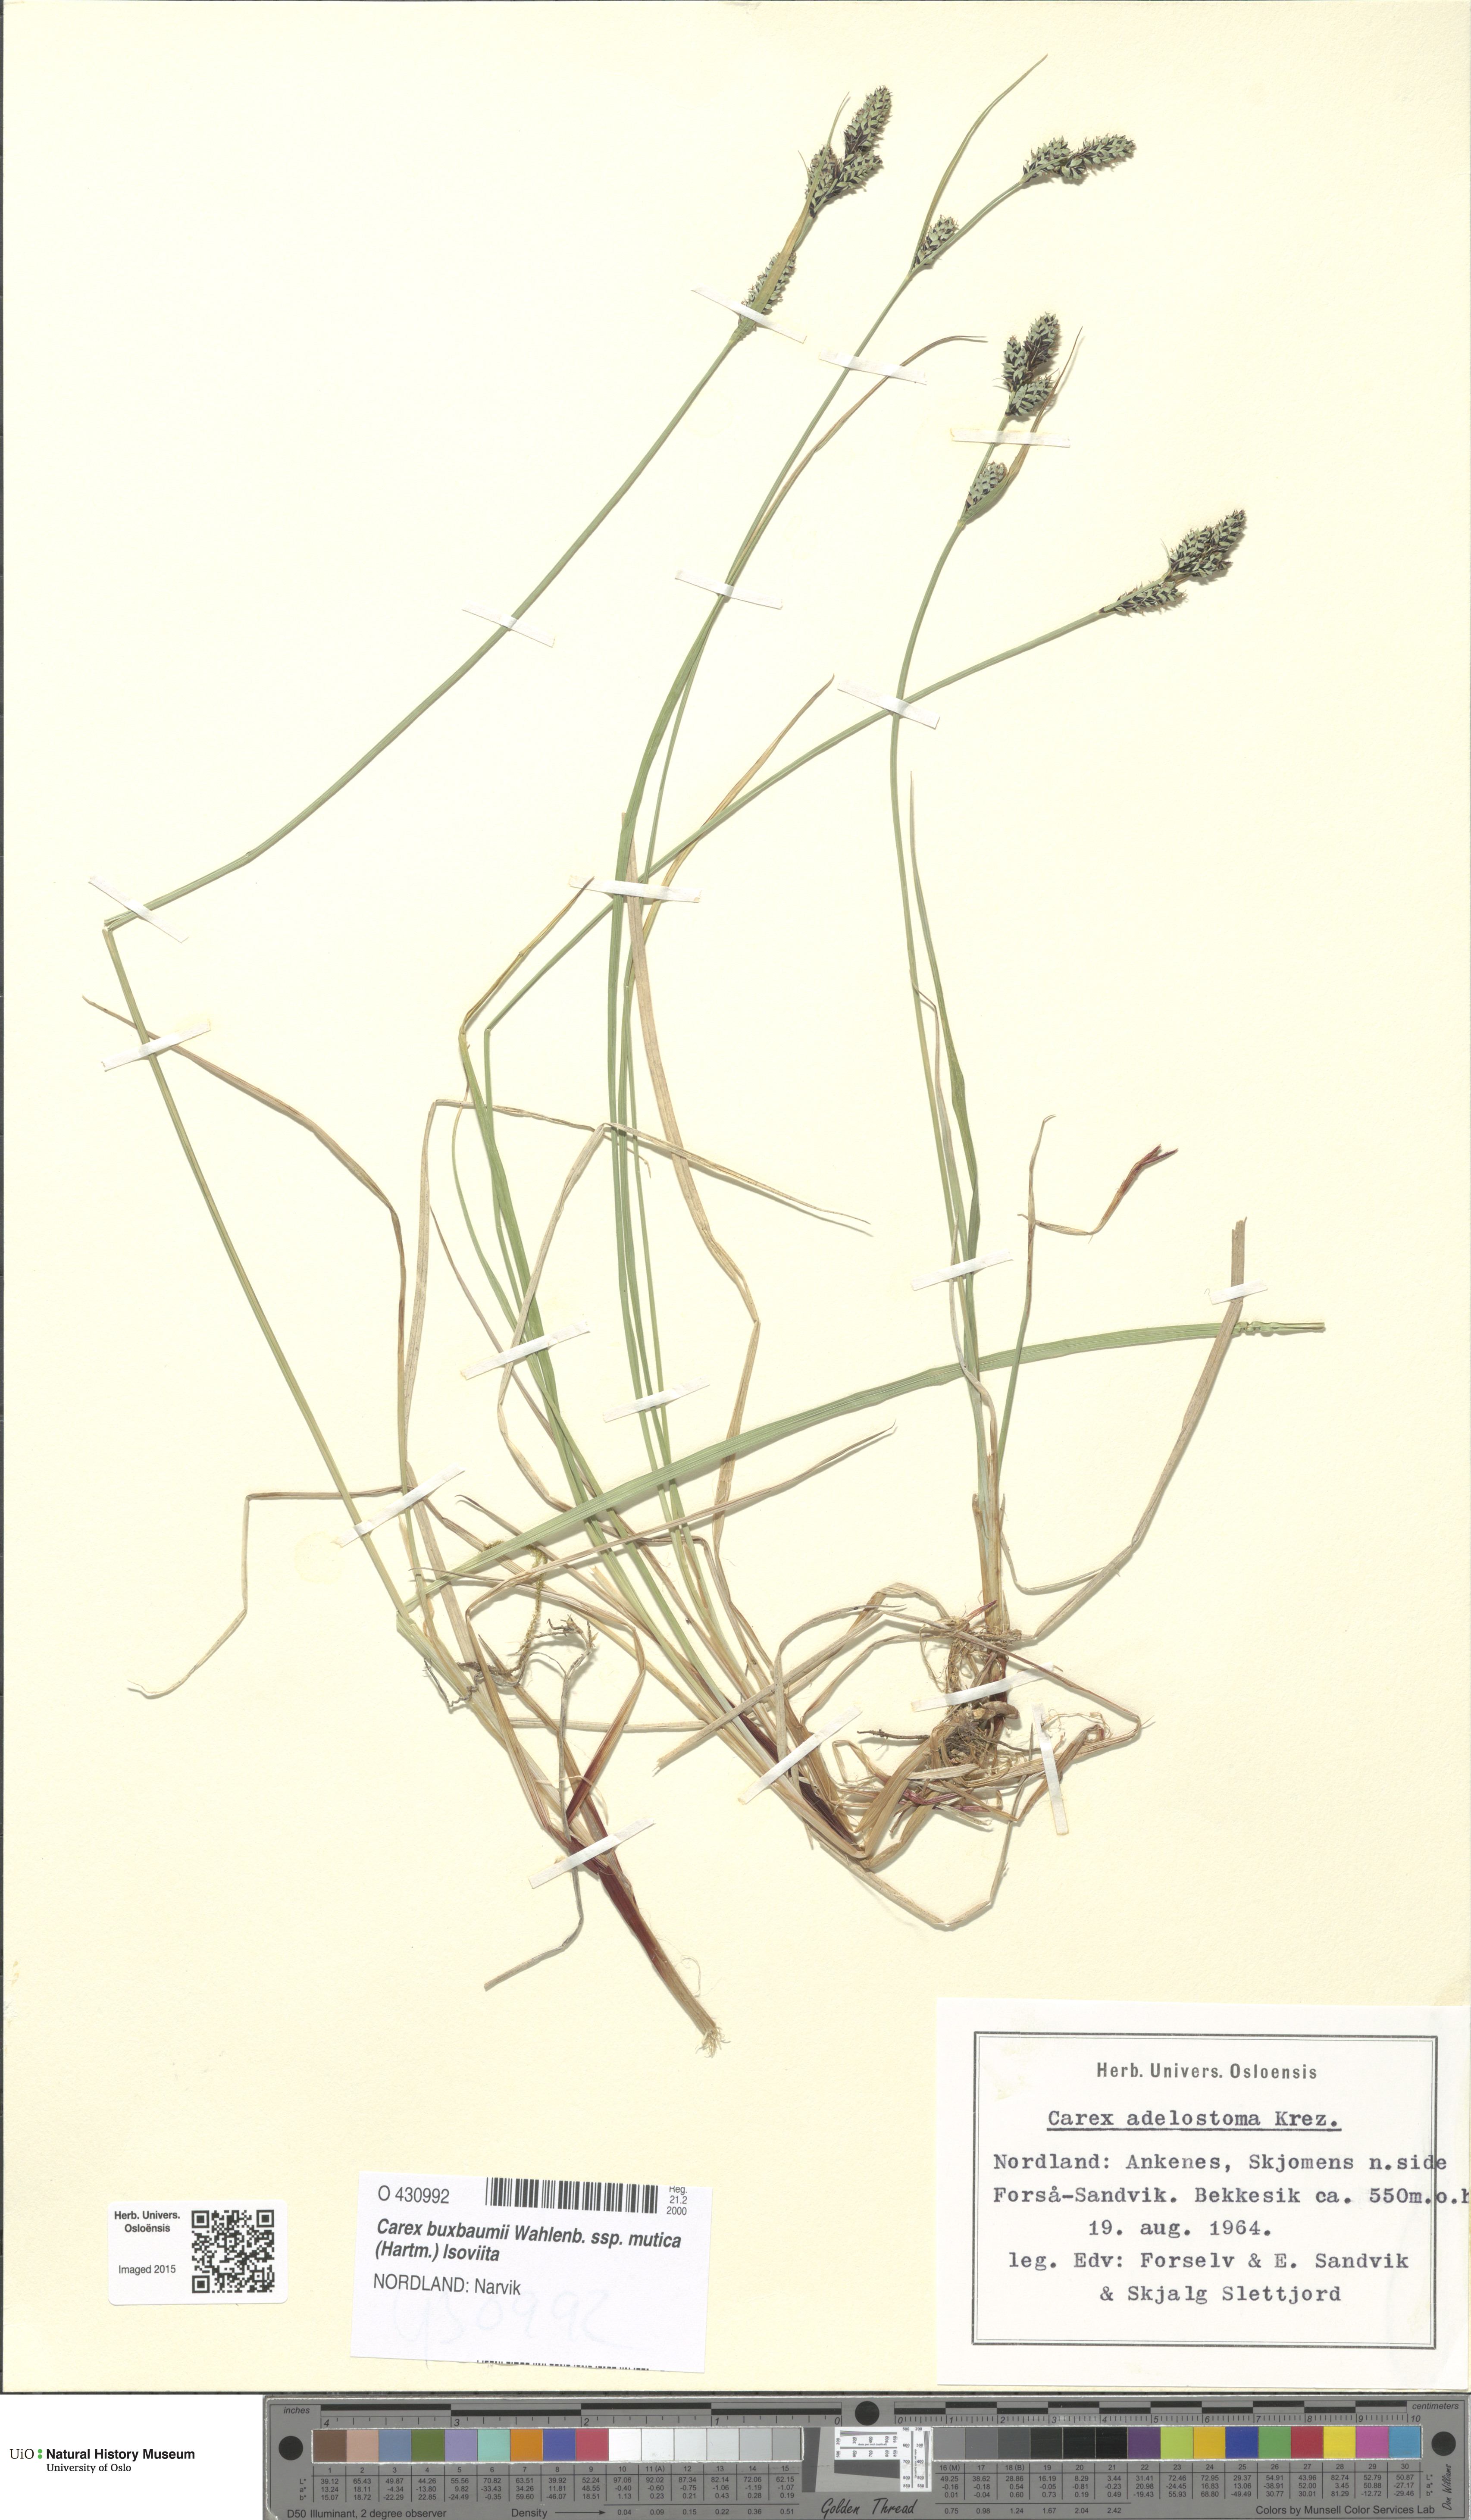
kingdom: Plantae
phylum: Tracheophyta
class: Liliopsida
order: Poales
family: Cyperaceae
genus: Carex
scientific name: Carex adelostoma
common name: Circumpolar sedge
